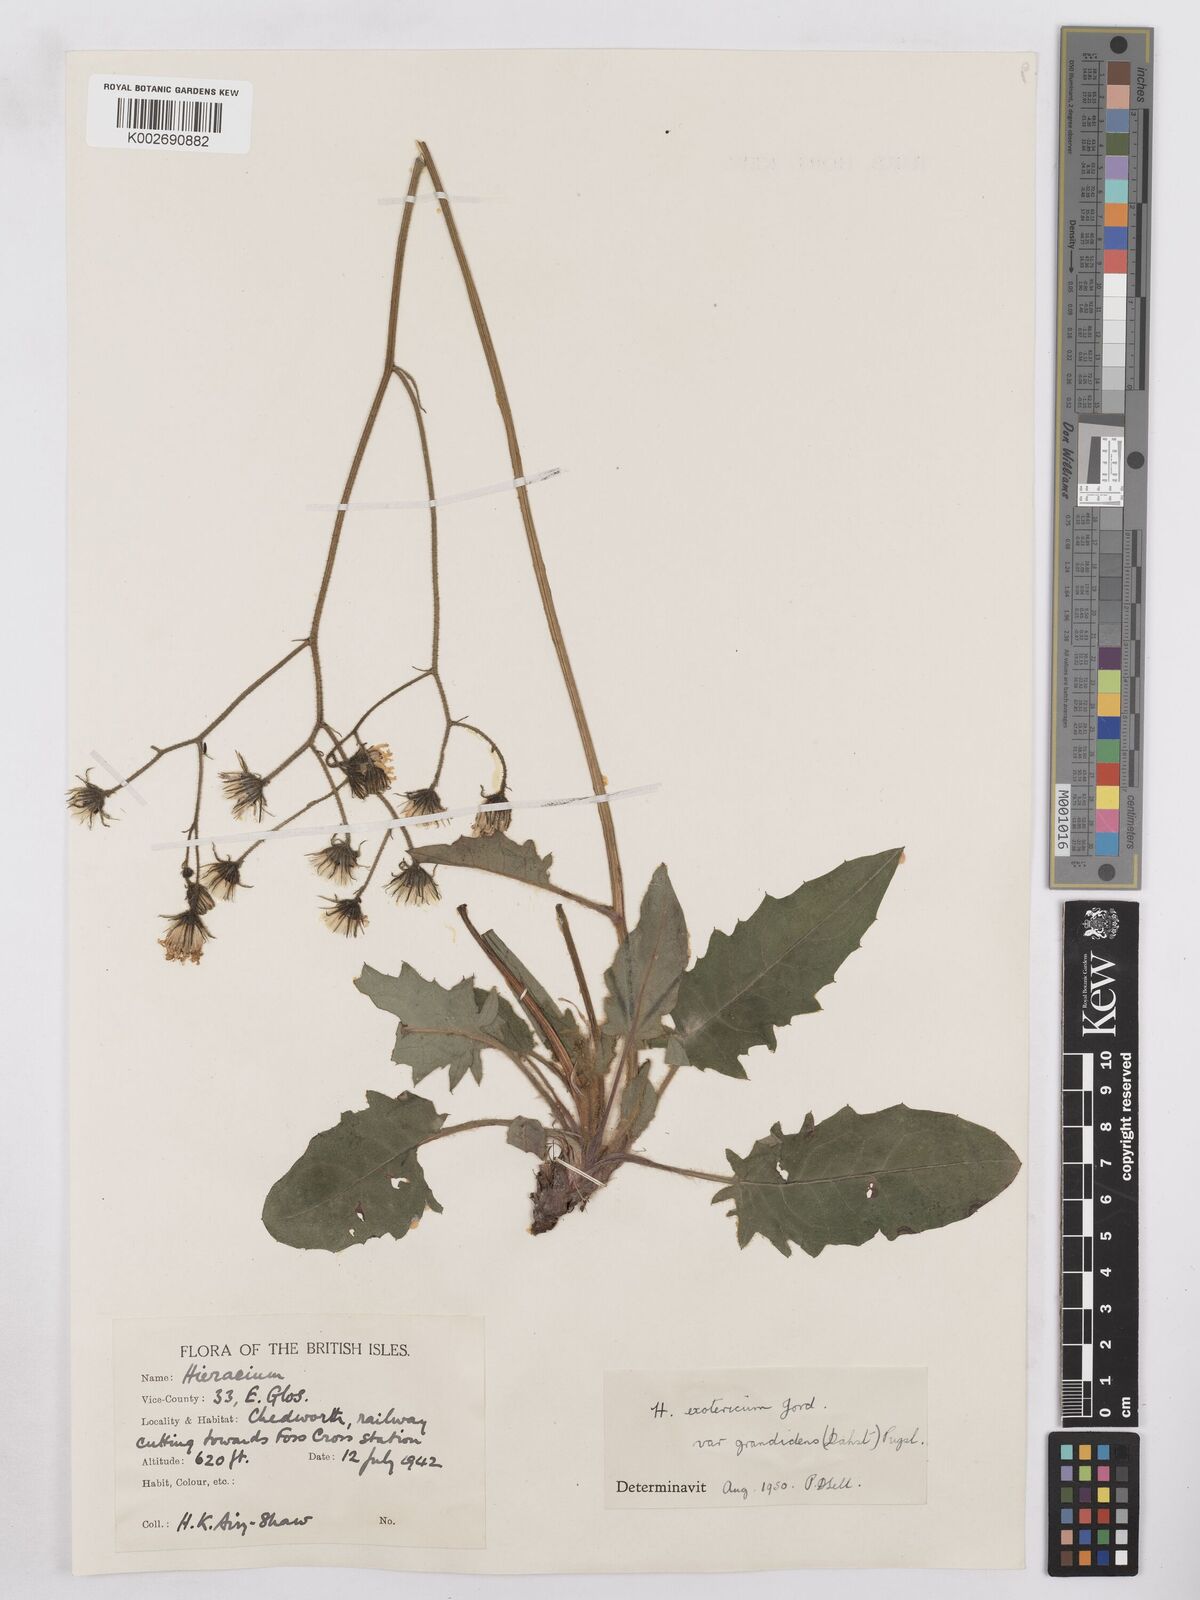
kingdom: Plantae
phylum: Tracheophyta
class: Magnoliopsida
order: Asterales
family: Asteraceae
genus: Hieracium
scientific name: Hieracium murorum
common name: Wall hawkweed
